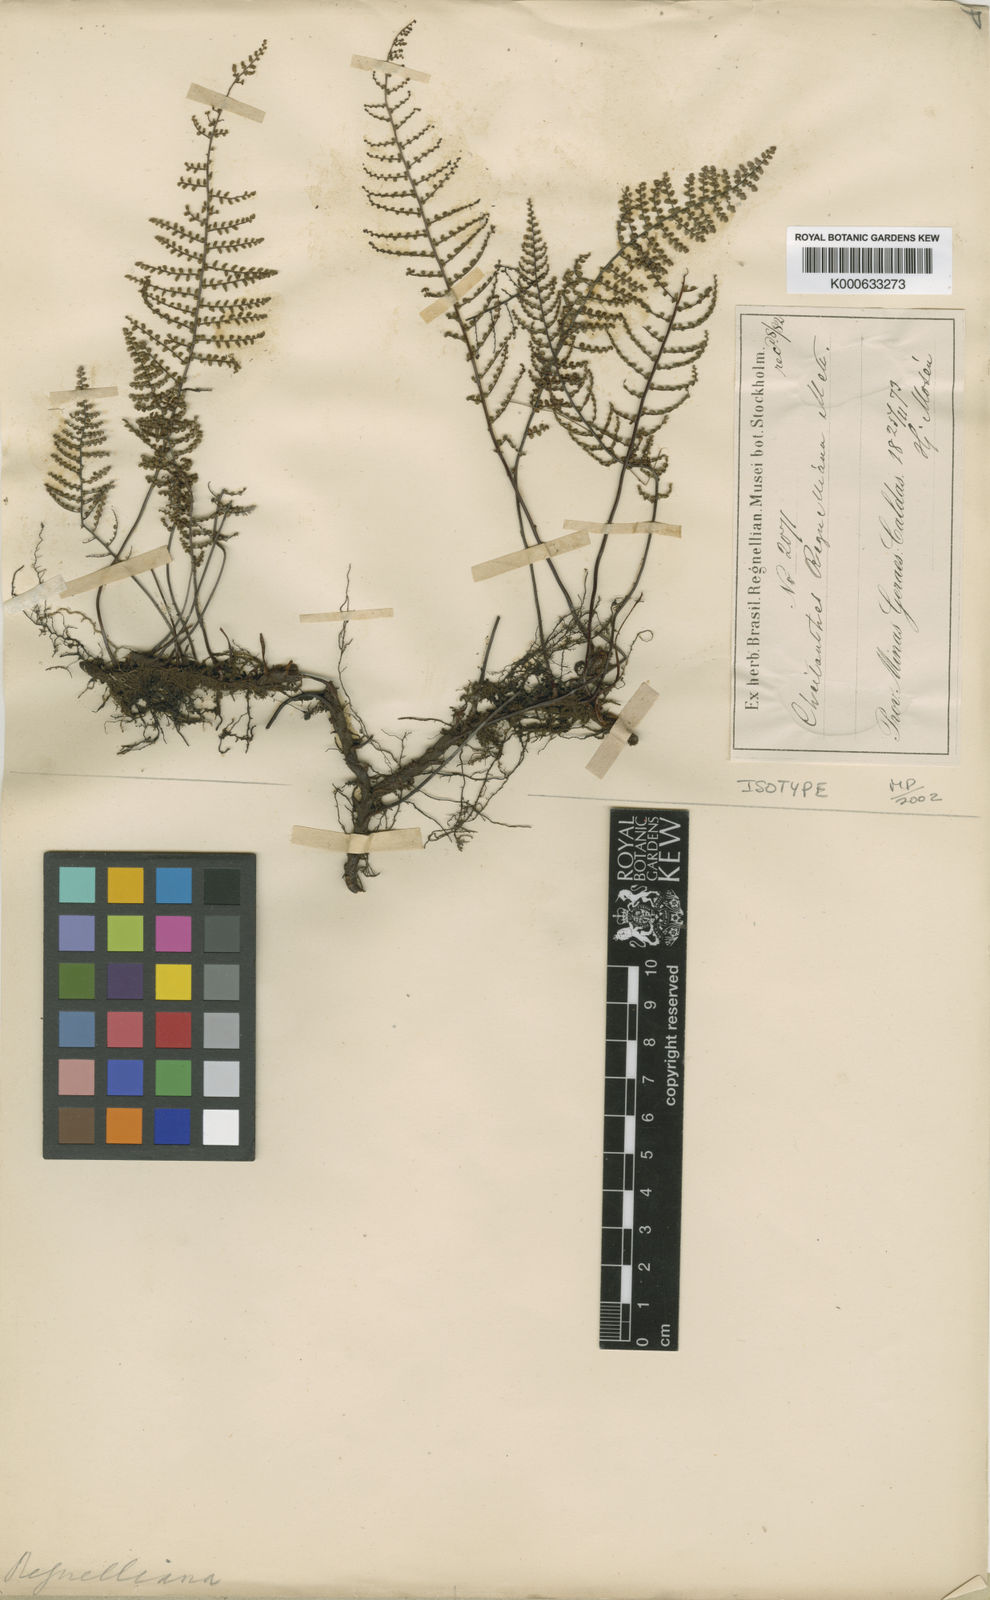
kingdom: Plantae
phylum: Tracheophyta
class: Polypodiopsida
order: Polypodiales
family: Pteridaceae
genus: Pellaea
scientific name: Pellaea regnelliana
